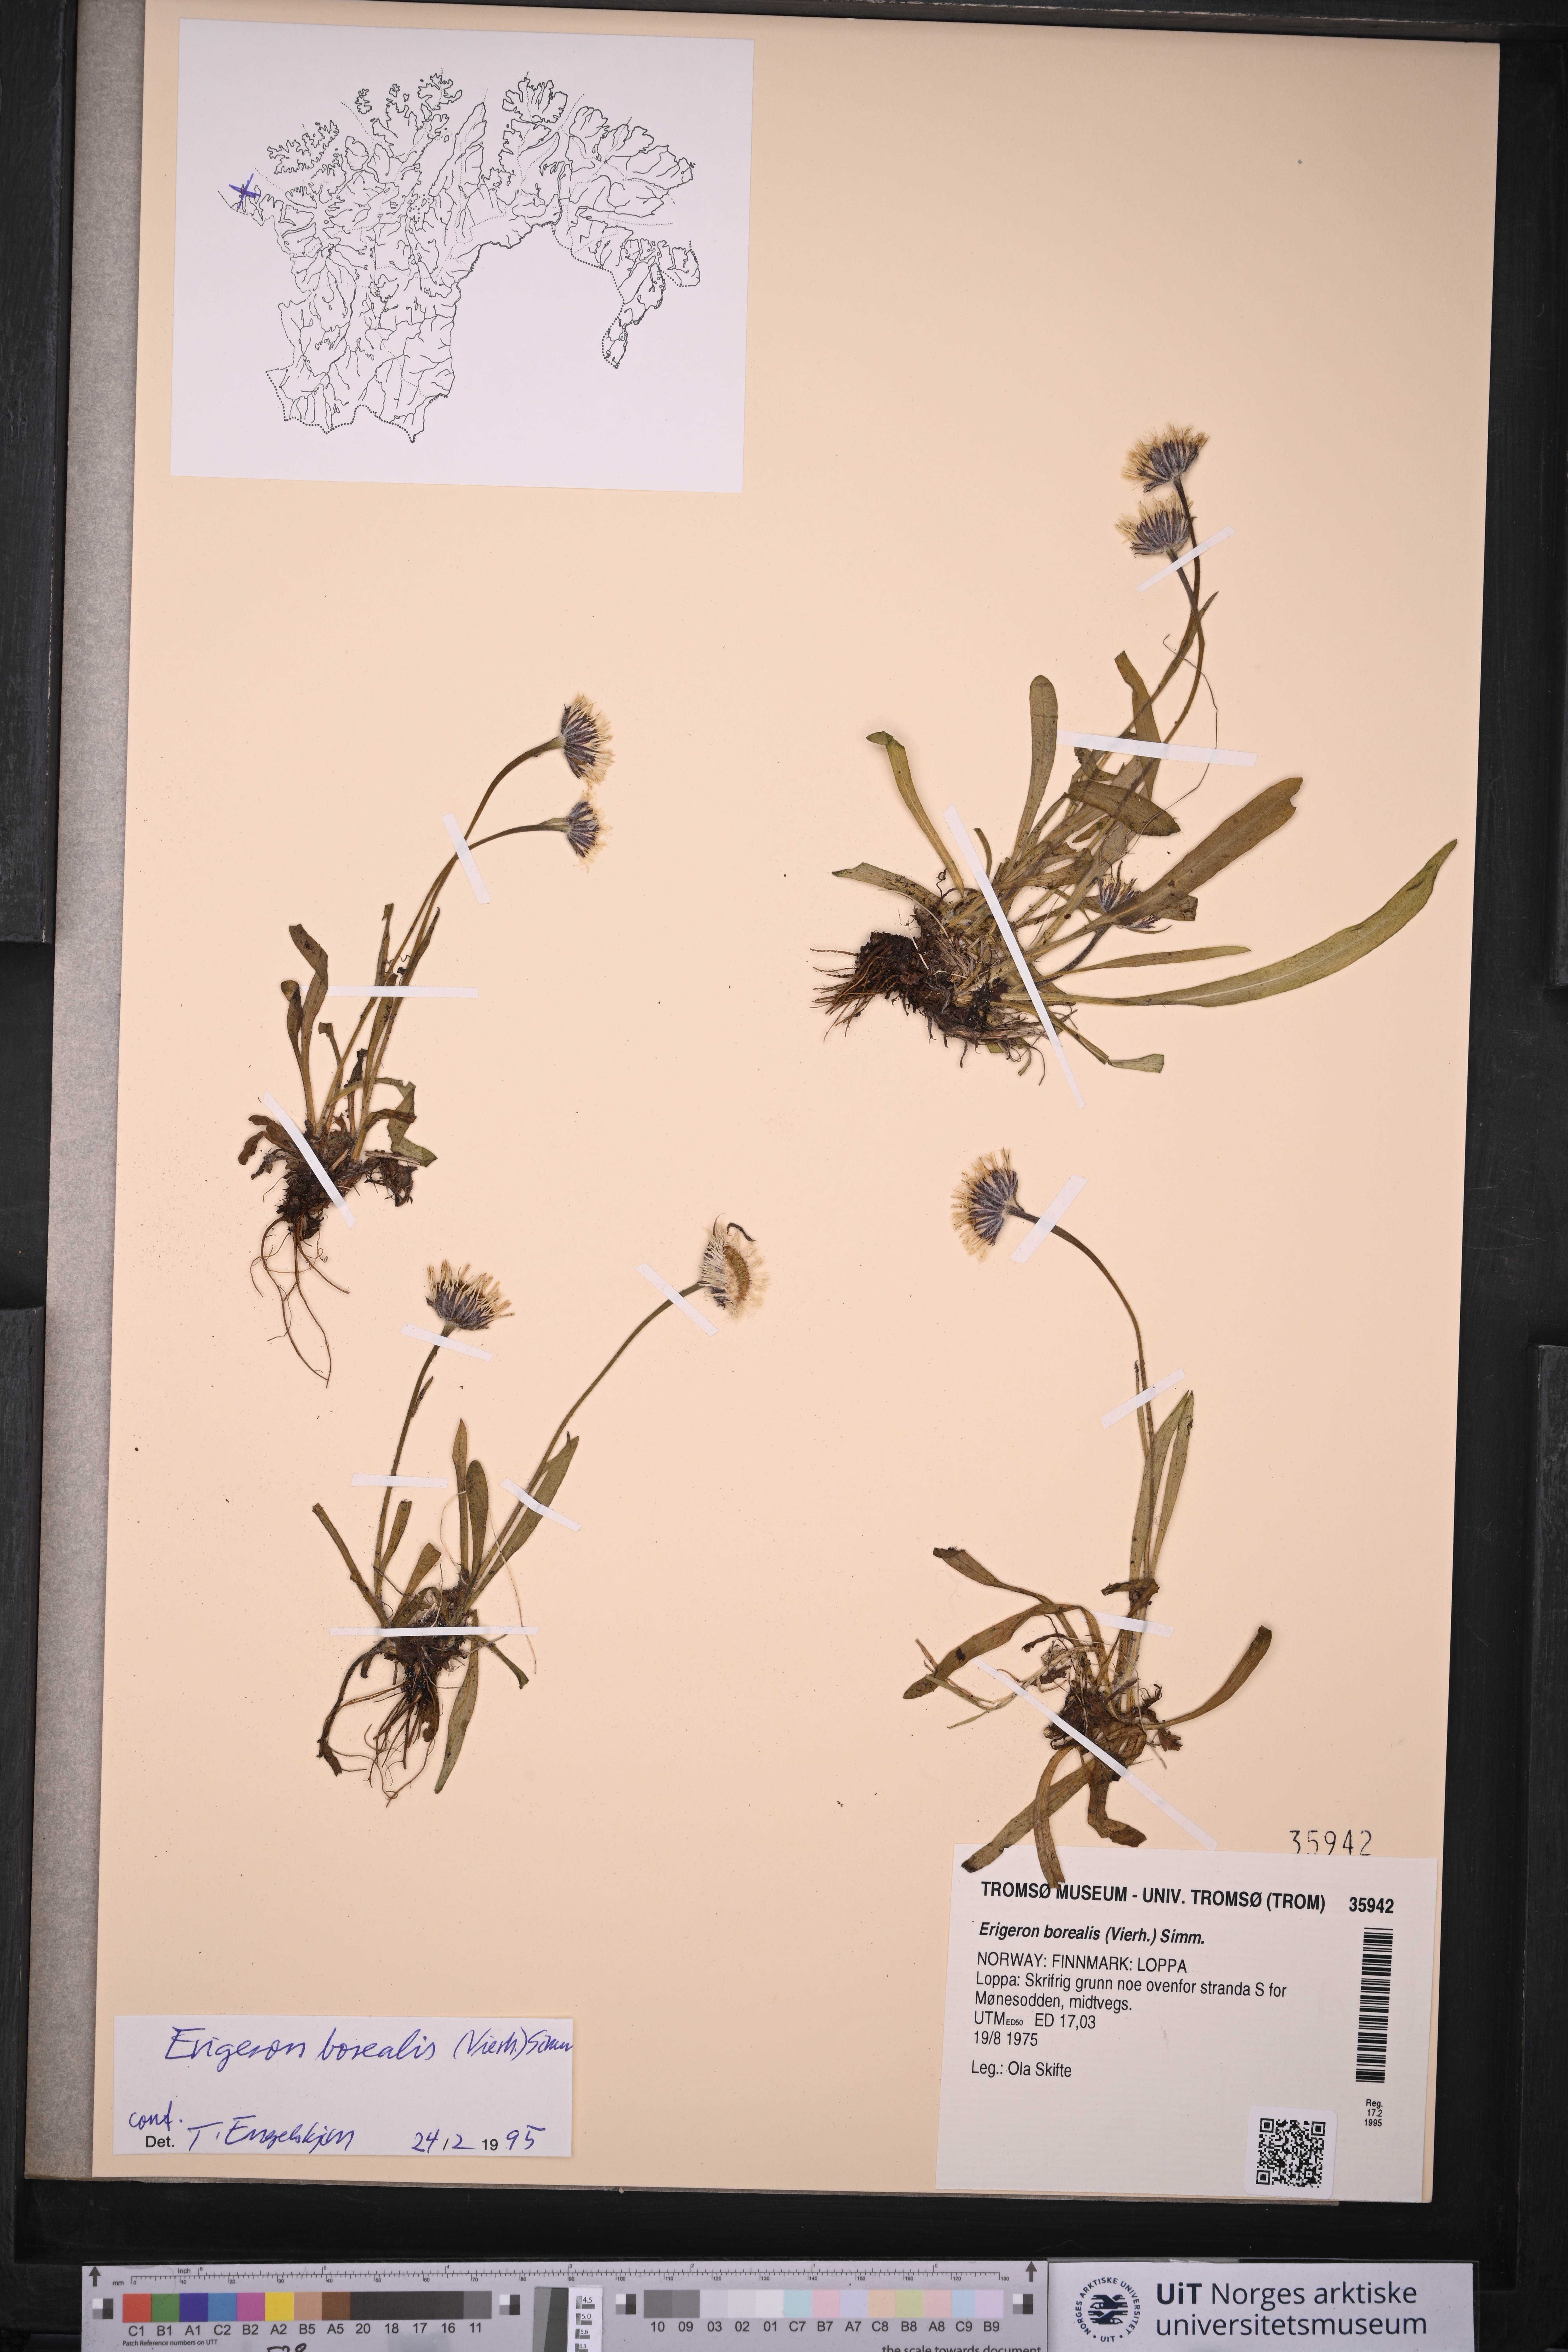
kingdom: Plantae
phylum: Tracheophyta
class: Magnoliopsida
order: Asterales
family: Asteraceae
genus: Erigeron
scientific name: Erigeron borealis
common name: Alpine fleabane
